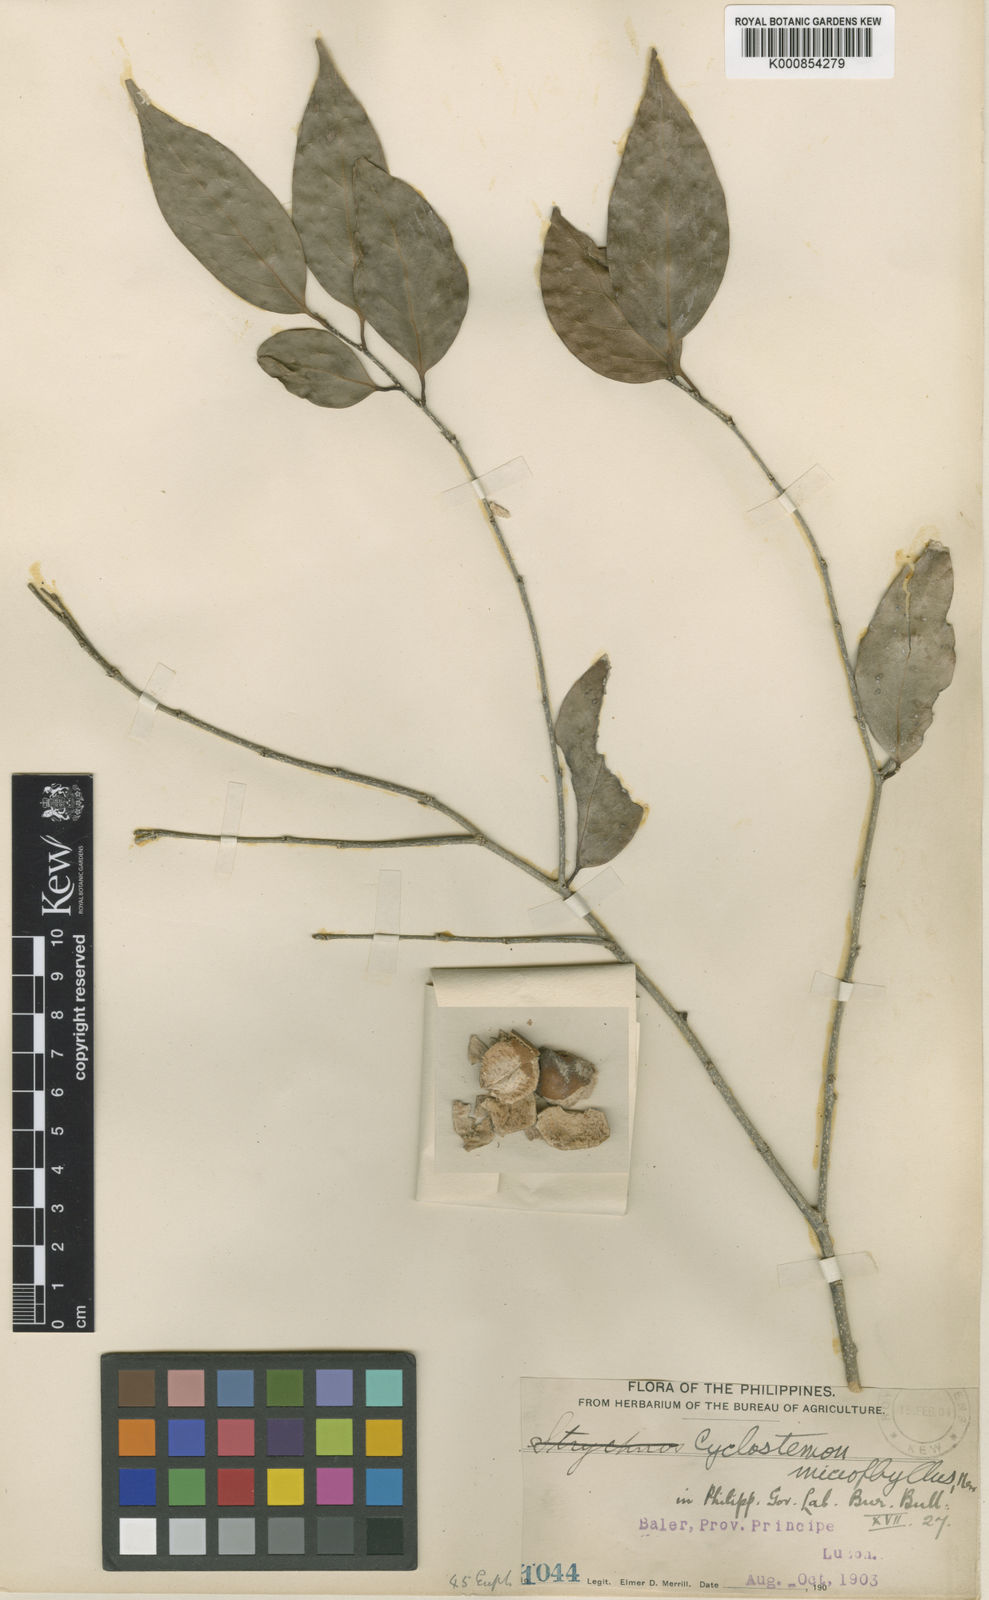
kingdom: Plantae
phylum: Tracheophyta
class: Magnoliopsida
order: Malpighiales
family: Putranjivaceae
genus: Drypetes
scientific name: Drypetes microphylla
